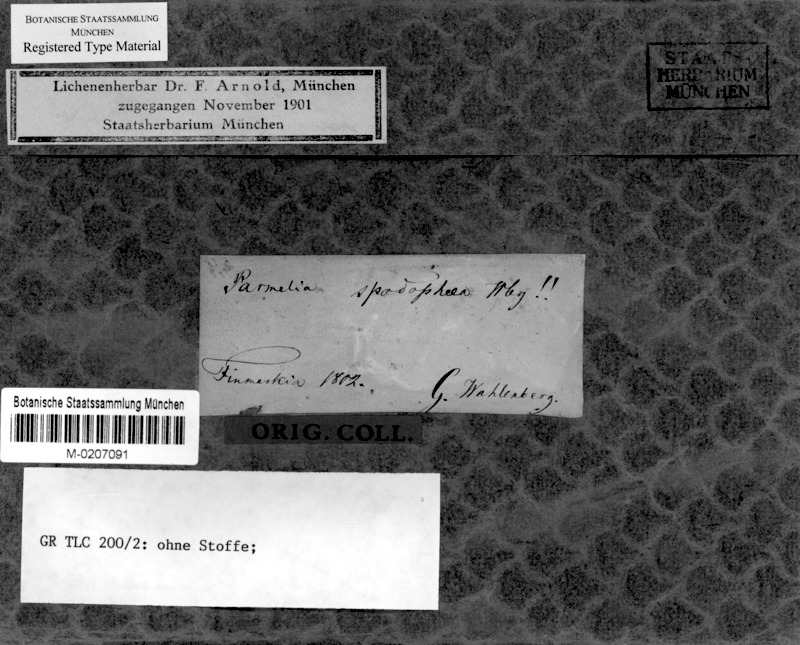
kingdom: Fungi
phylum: Ascomycota
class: Lecanoromycetes
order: Lecanorales
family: Lecanoraceae
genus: Myriolecis
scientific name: Myriolecis poliophaea
